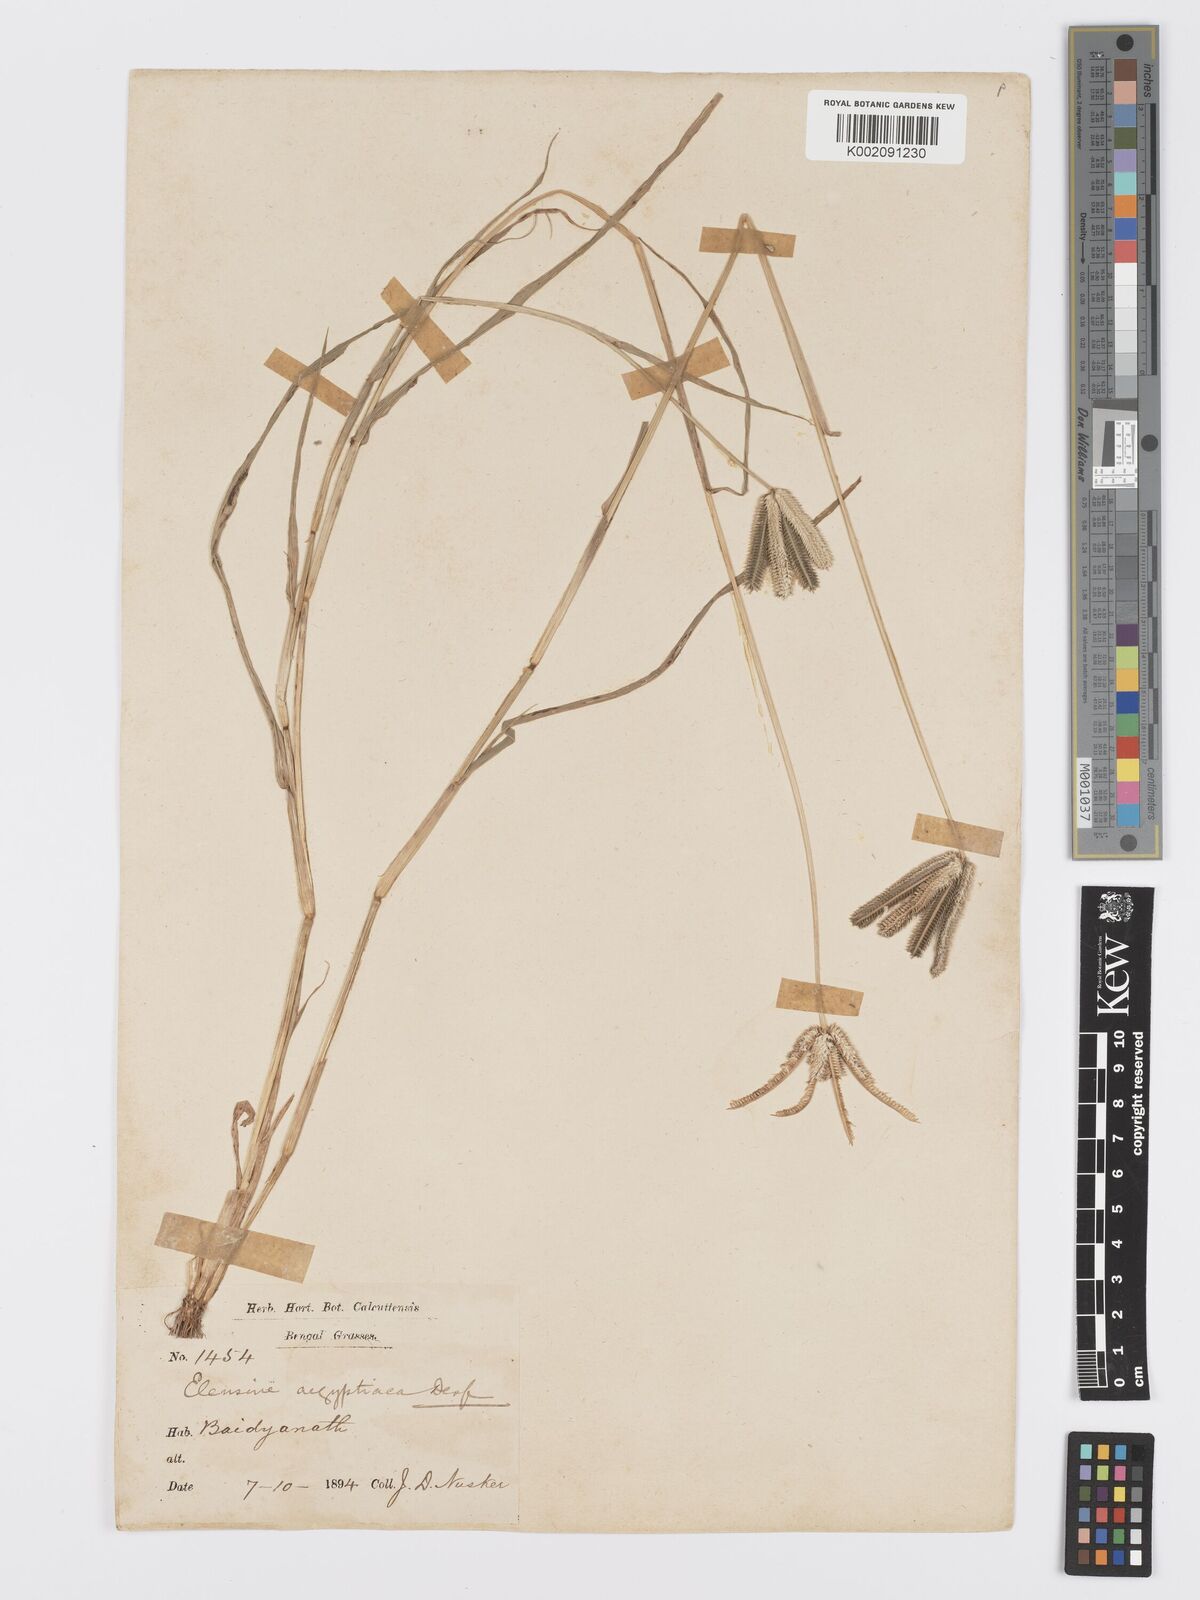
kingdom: Plantae
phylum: Tracheophyta
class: Liliopsida
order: Poales
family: Poaceae
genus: Dactyloctenium
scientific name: Dactyloctenium aegyptium
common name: Egyptian grass
